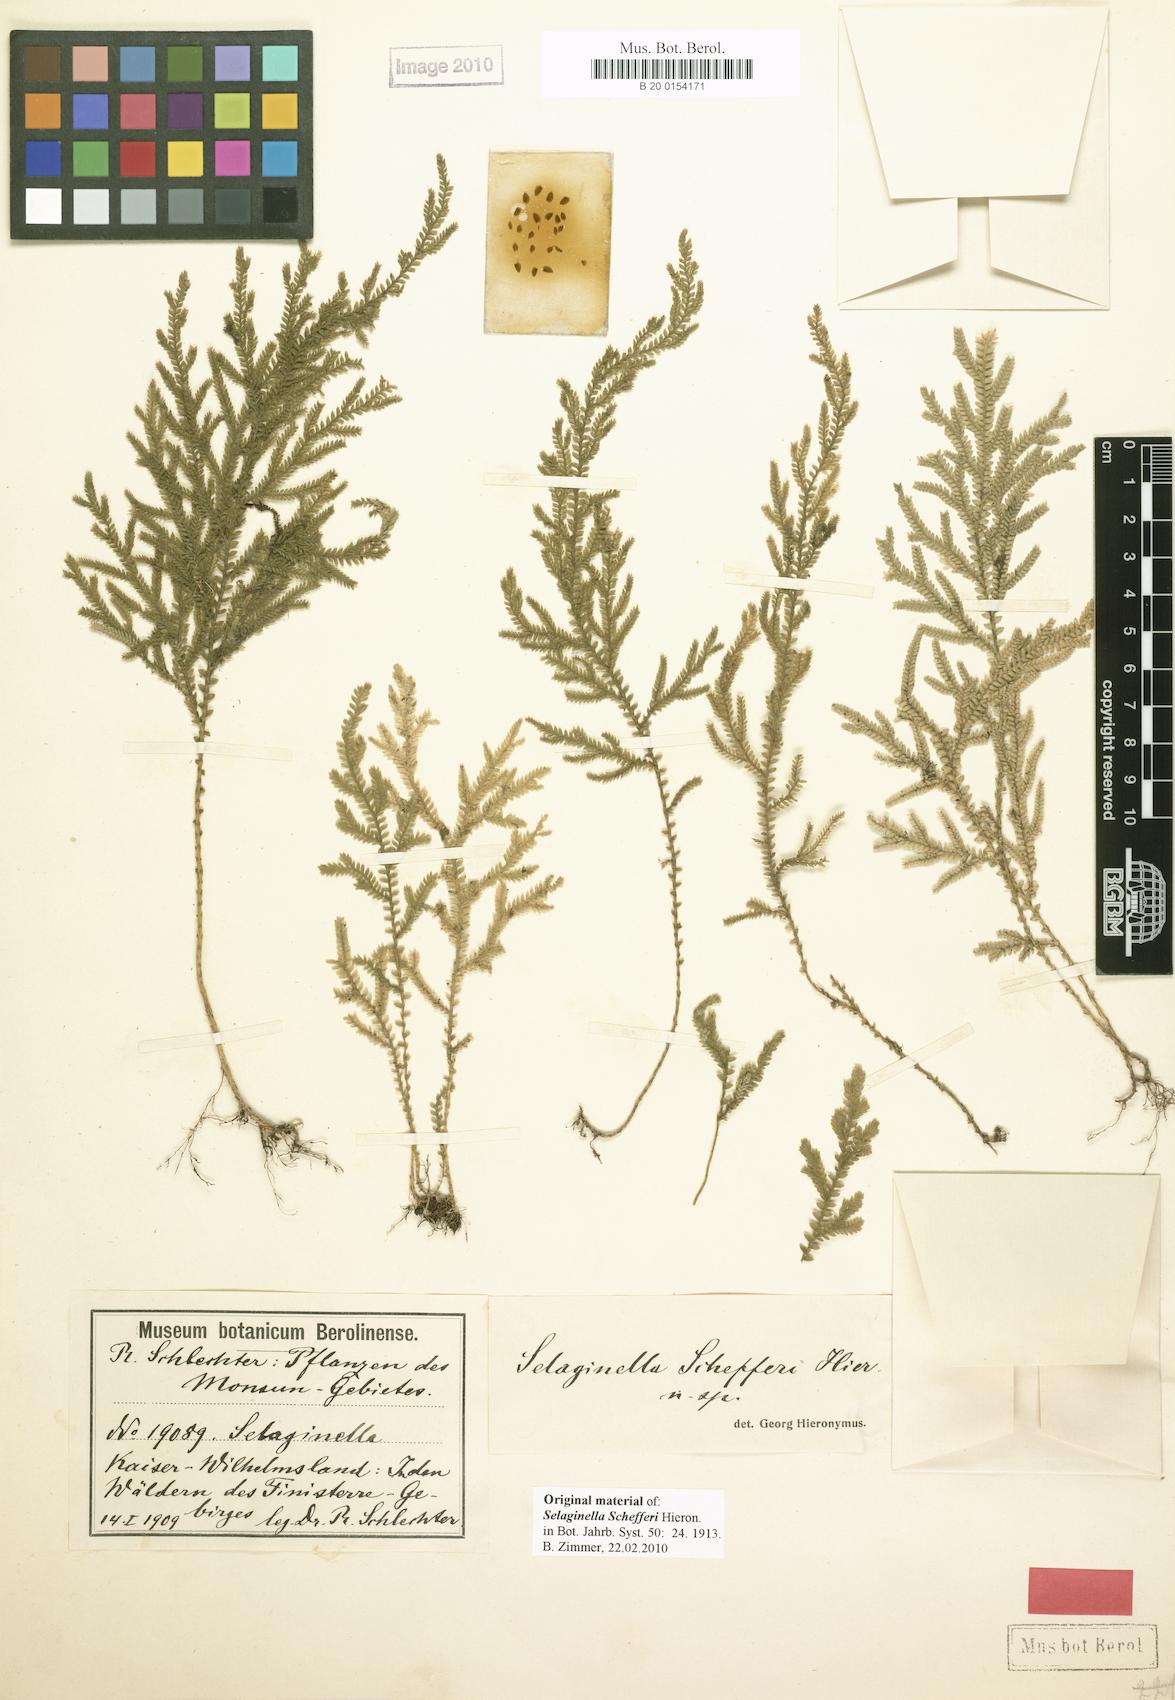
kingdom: Plantae
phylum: Tracheophyta
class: Lycopodiopsida
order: Selaginellales
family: Selaginellaceae
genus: Selaginella
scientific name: Selaginella schefferi
